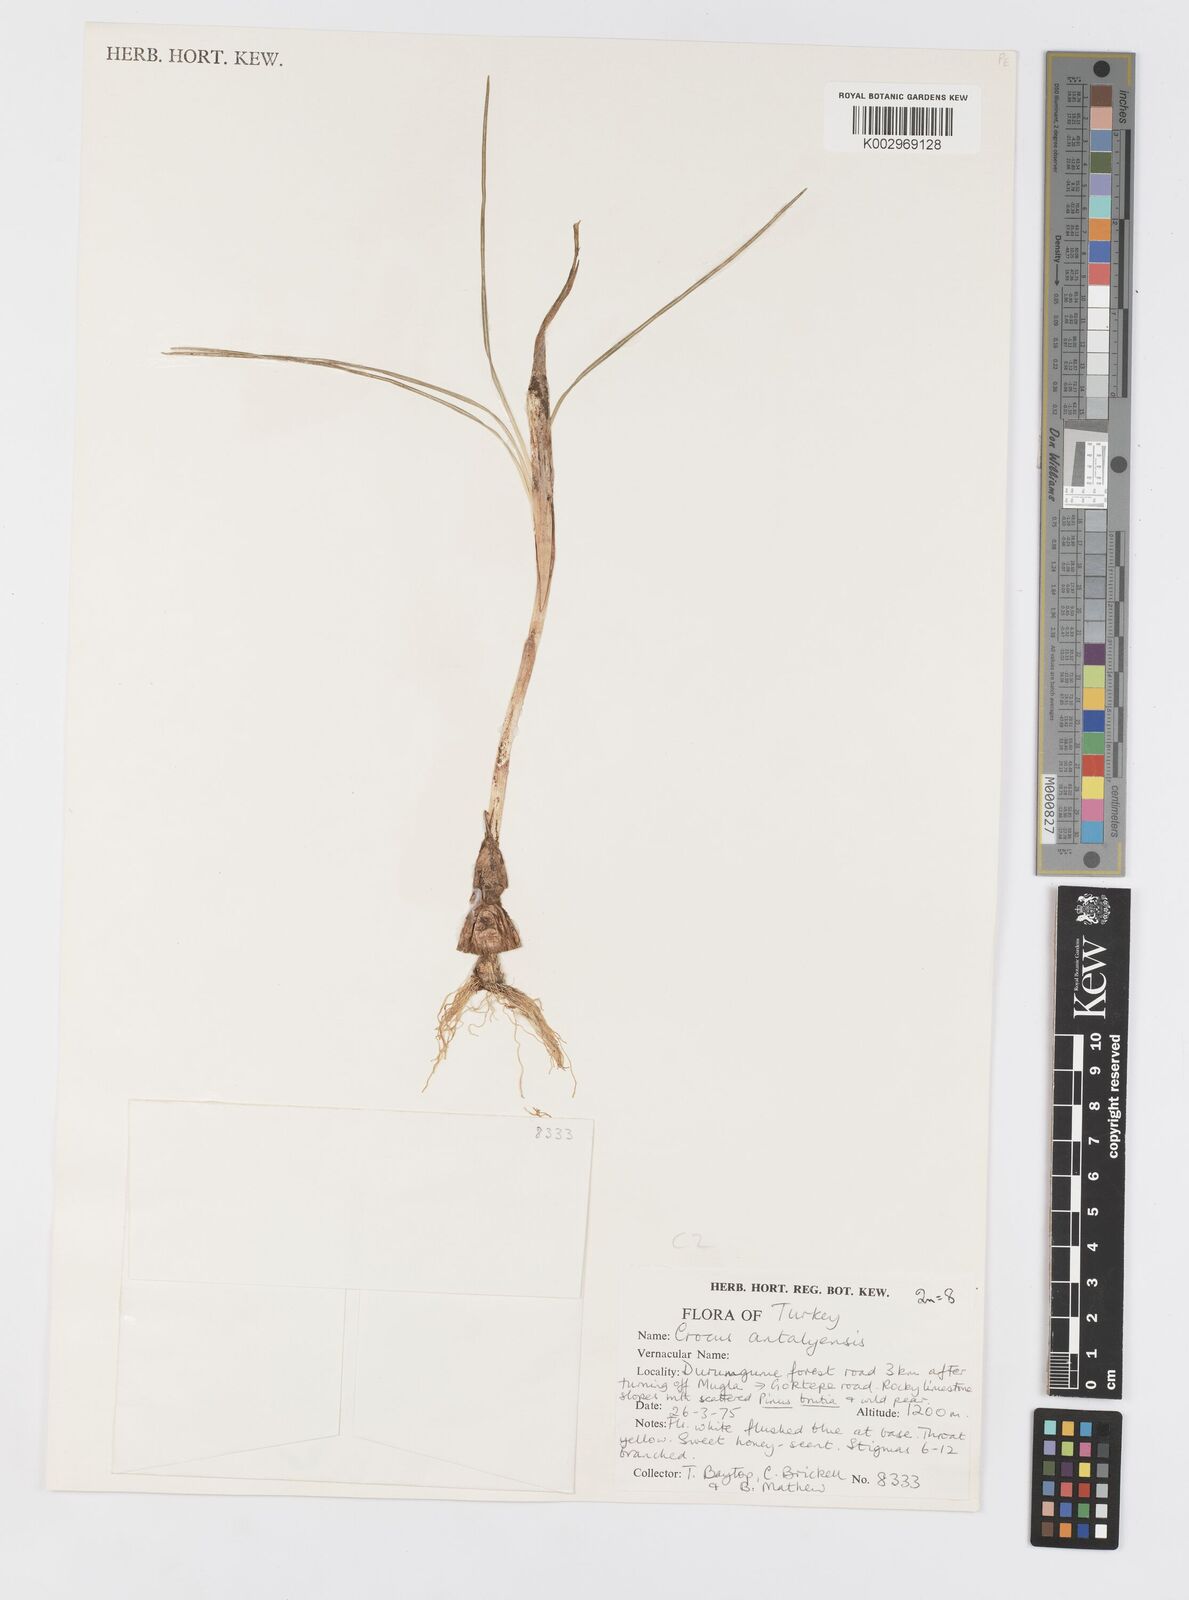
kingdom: Plantae
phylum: Tracheophyta
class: Liliopsida
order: Asparagales
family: Iridaceae
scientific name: Iridaceae
